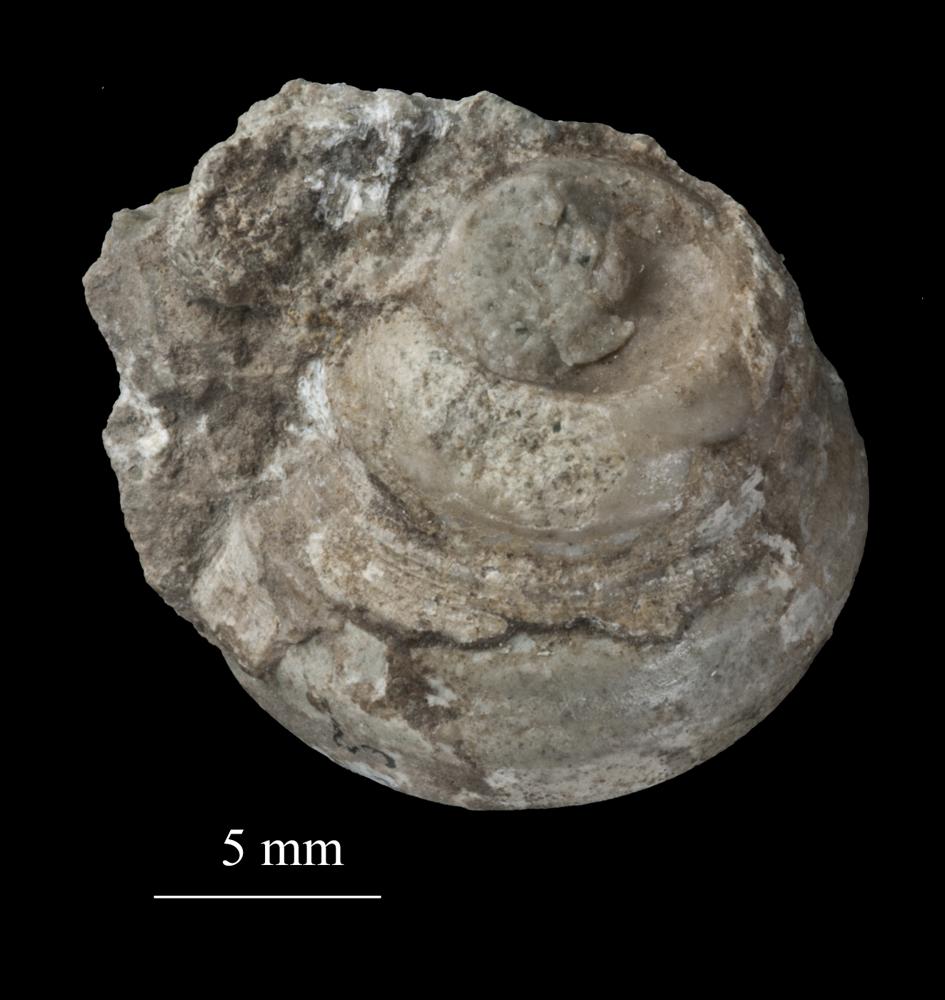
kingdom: Animalia
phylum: Mollusca
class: Gastropoda
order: Trochida
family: Trochidae
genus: Trochus
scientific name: Trochus
